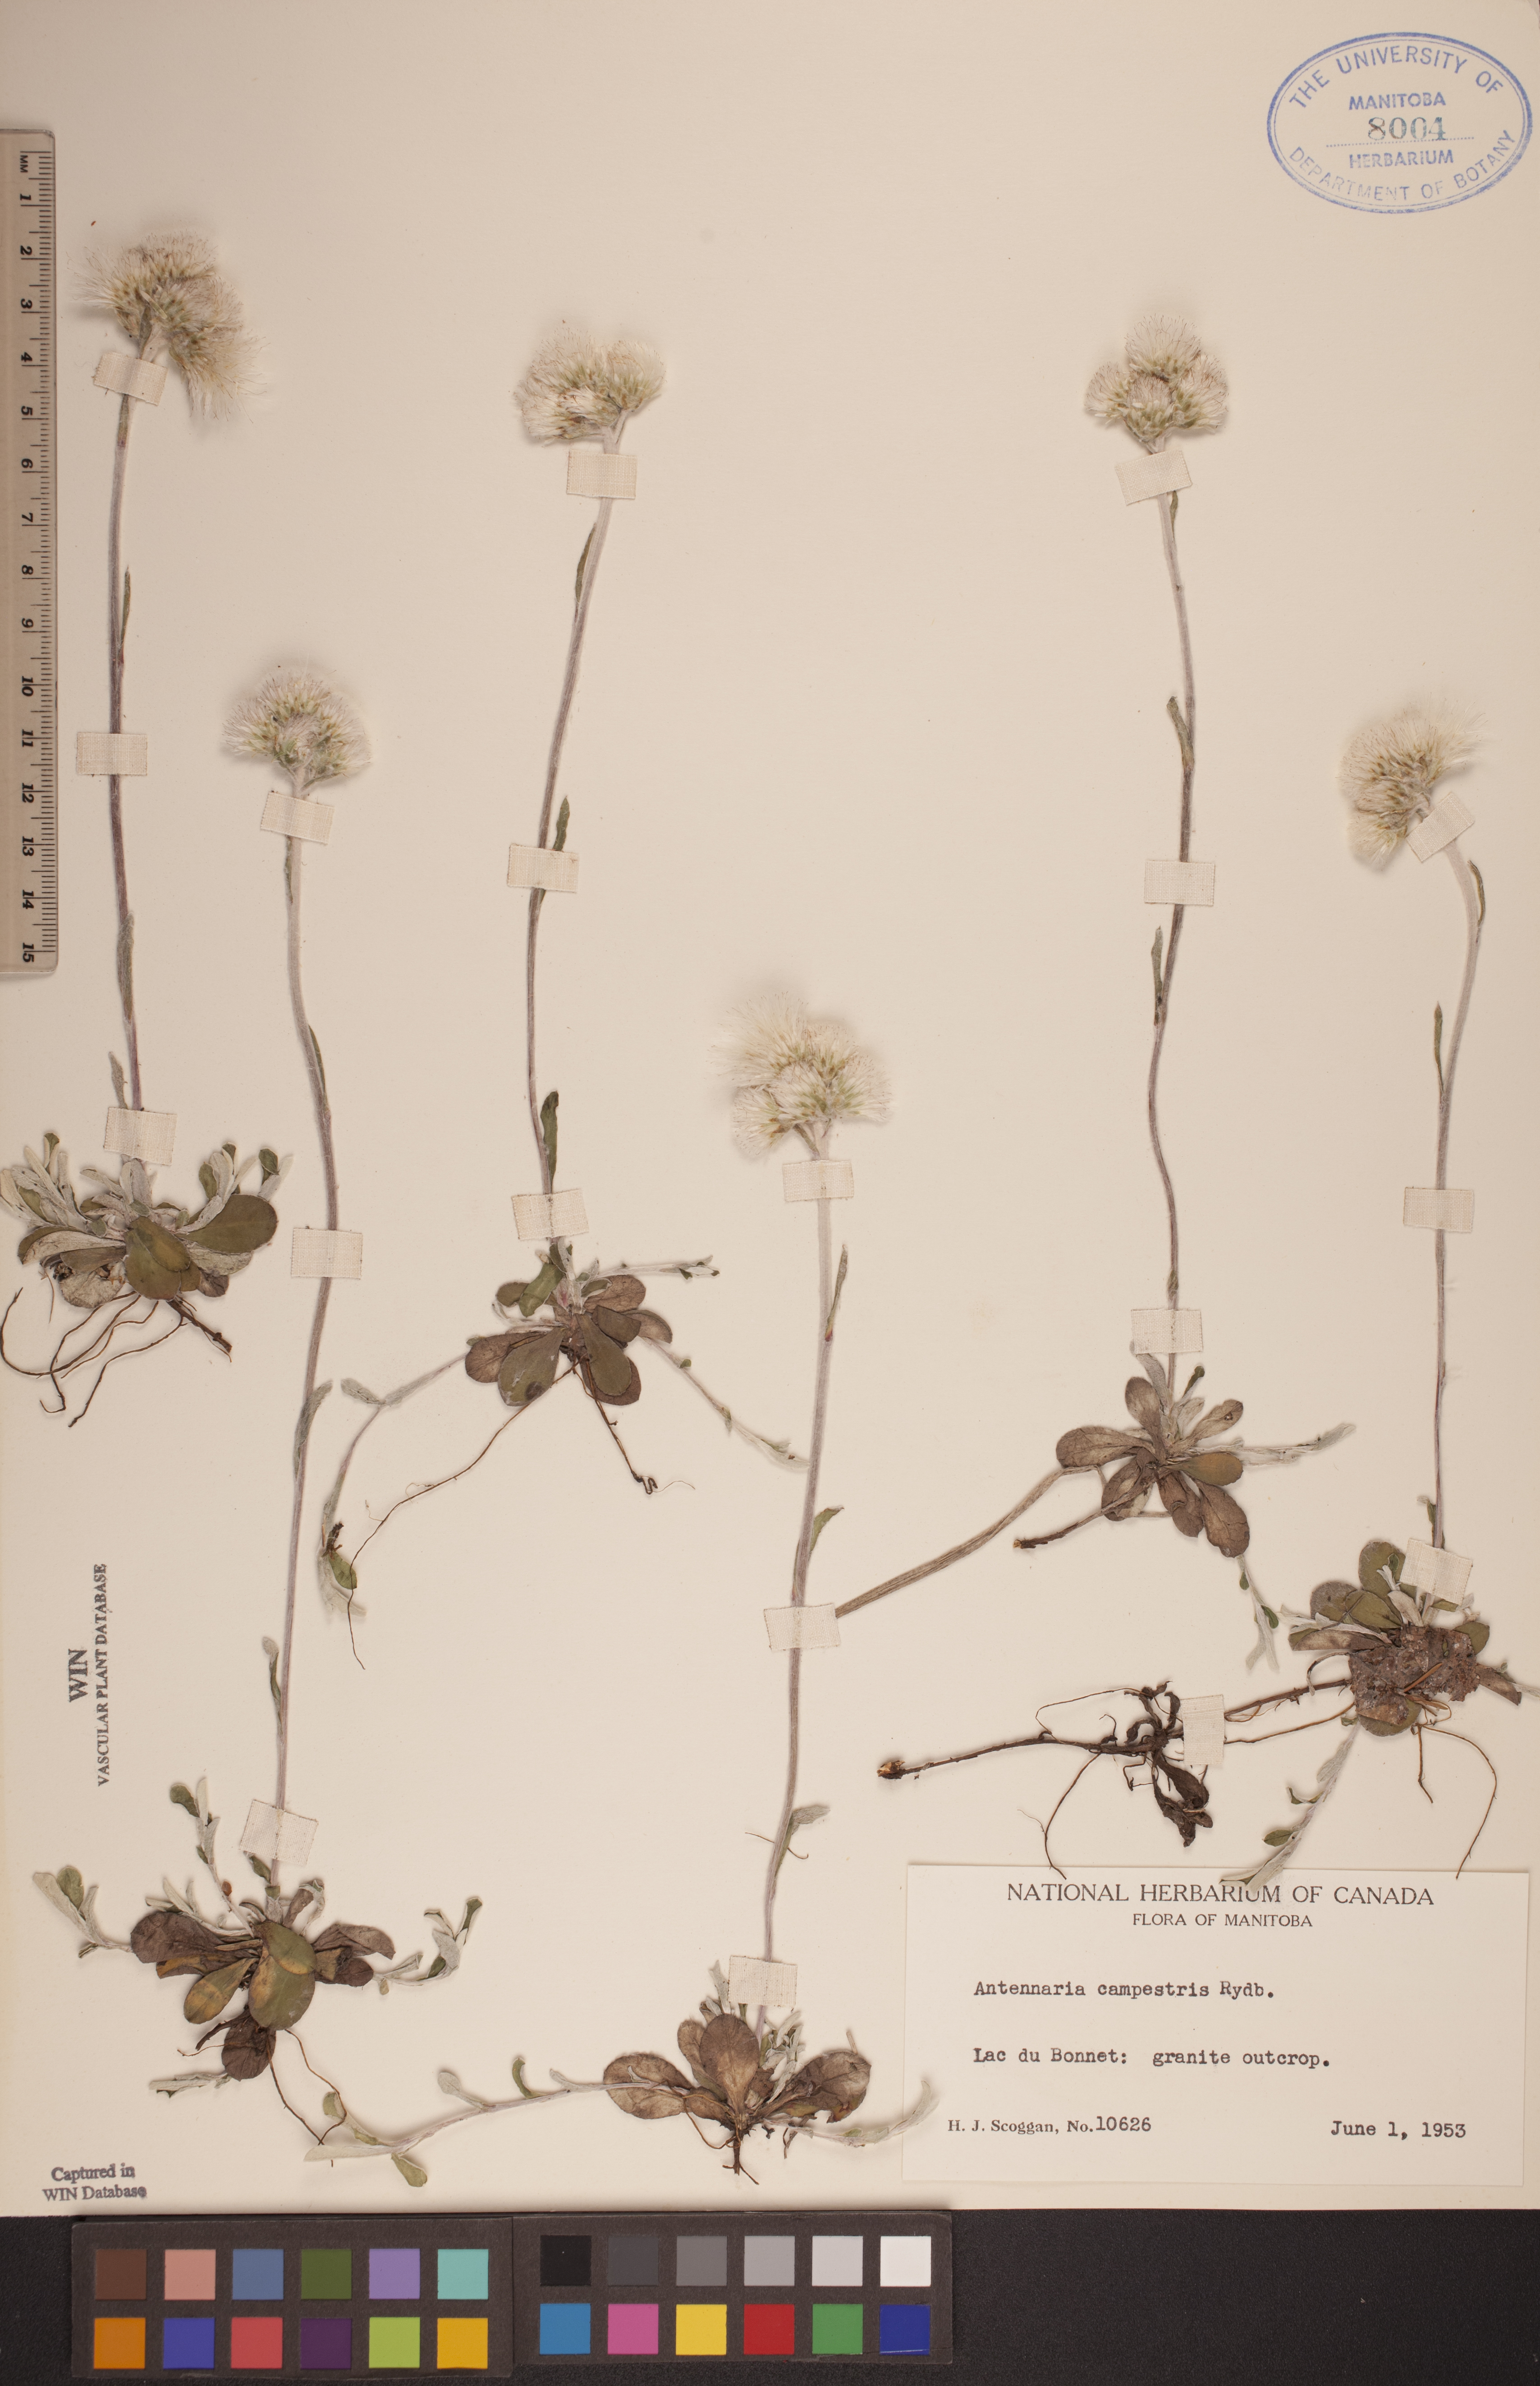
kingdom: Plantae
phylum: Tracheophyta
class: Magnoliopsida
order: Asterales
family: Asteraceae
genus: Antennaria
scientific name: Antennaria neglecta
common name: Field pussytoes
